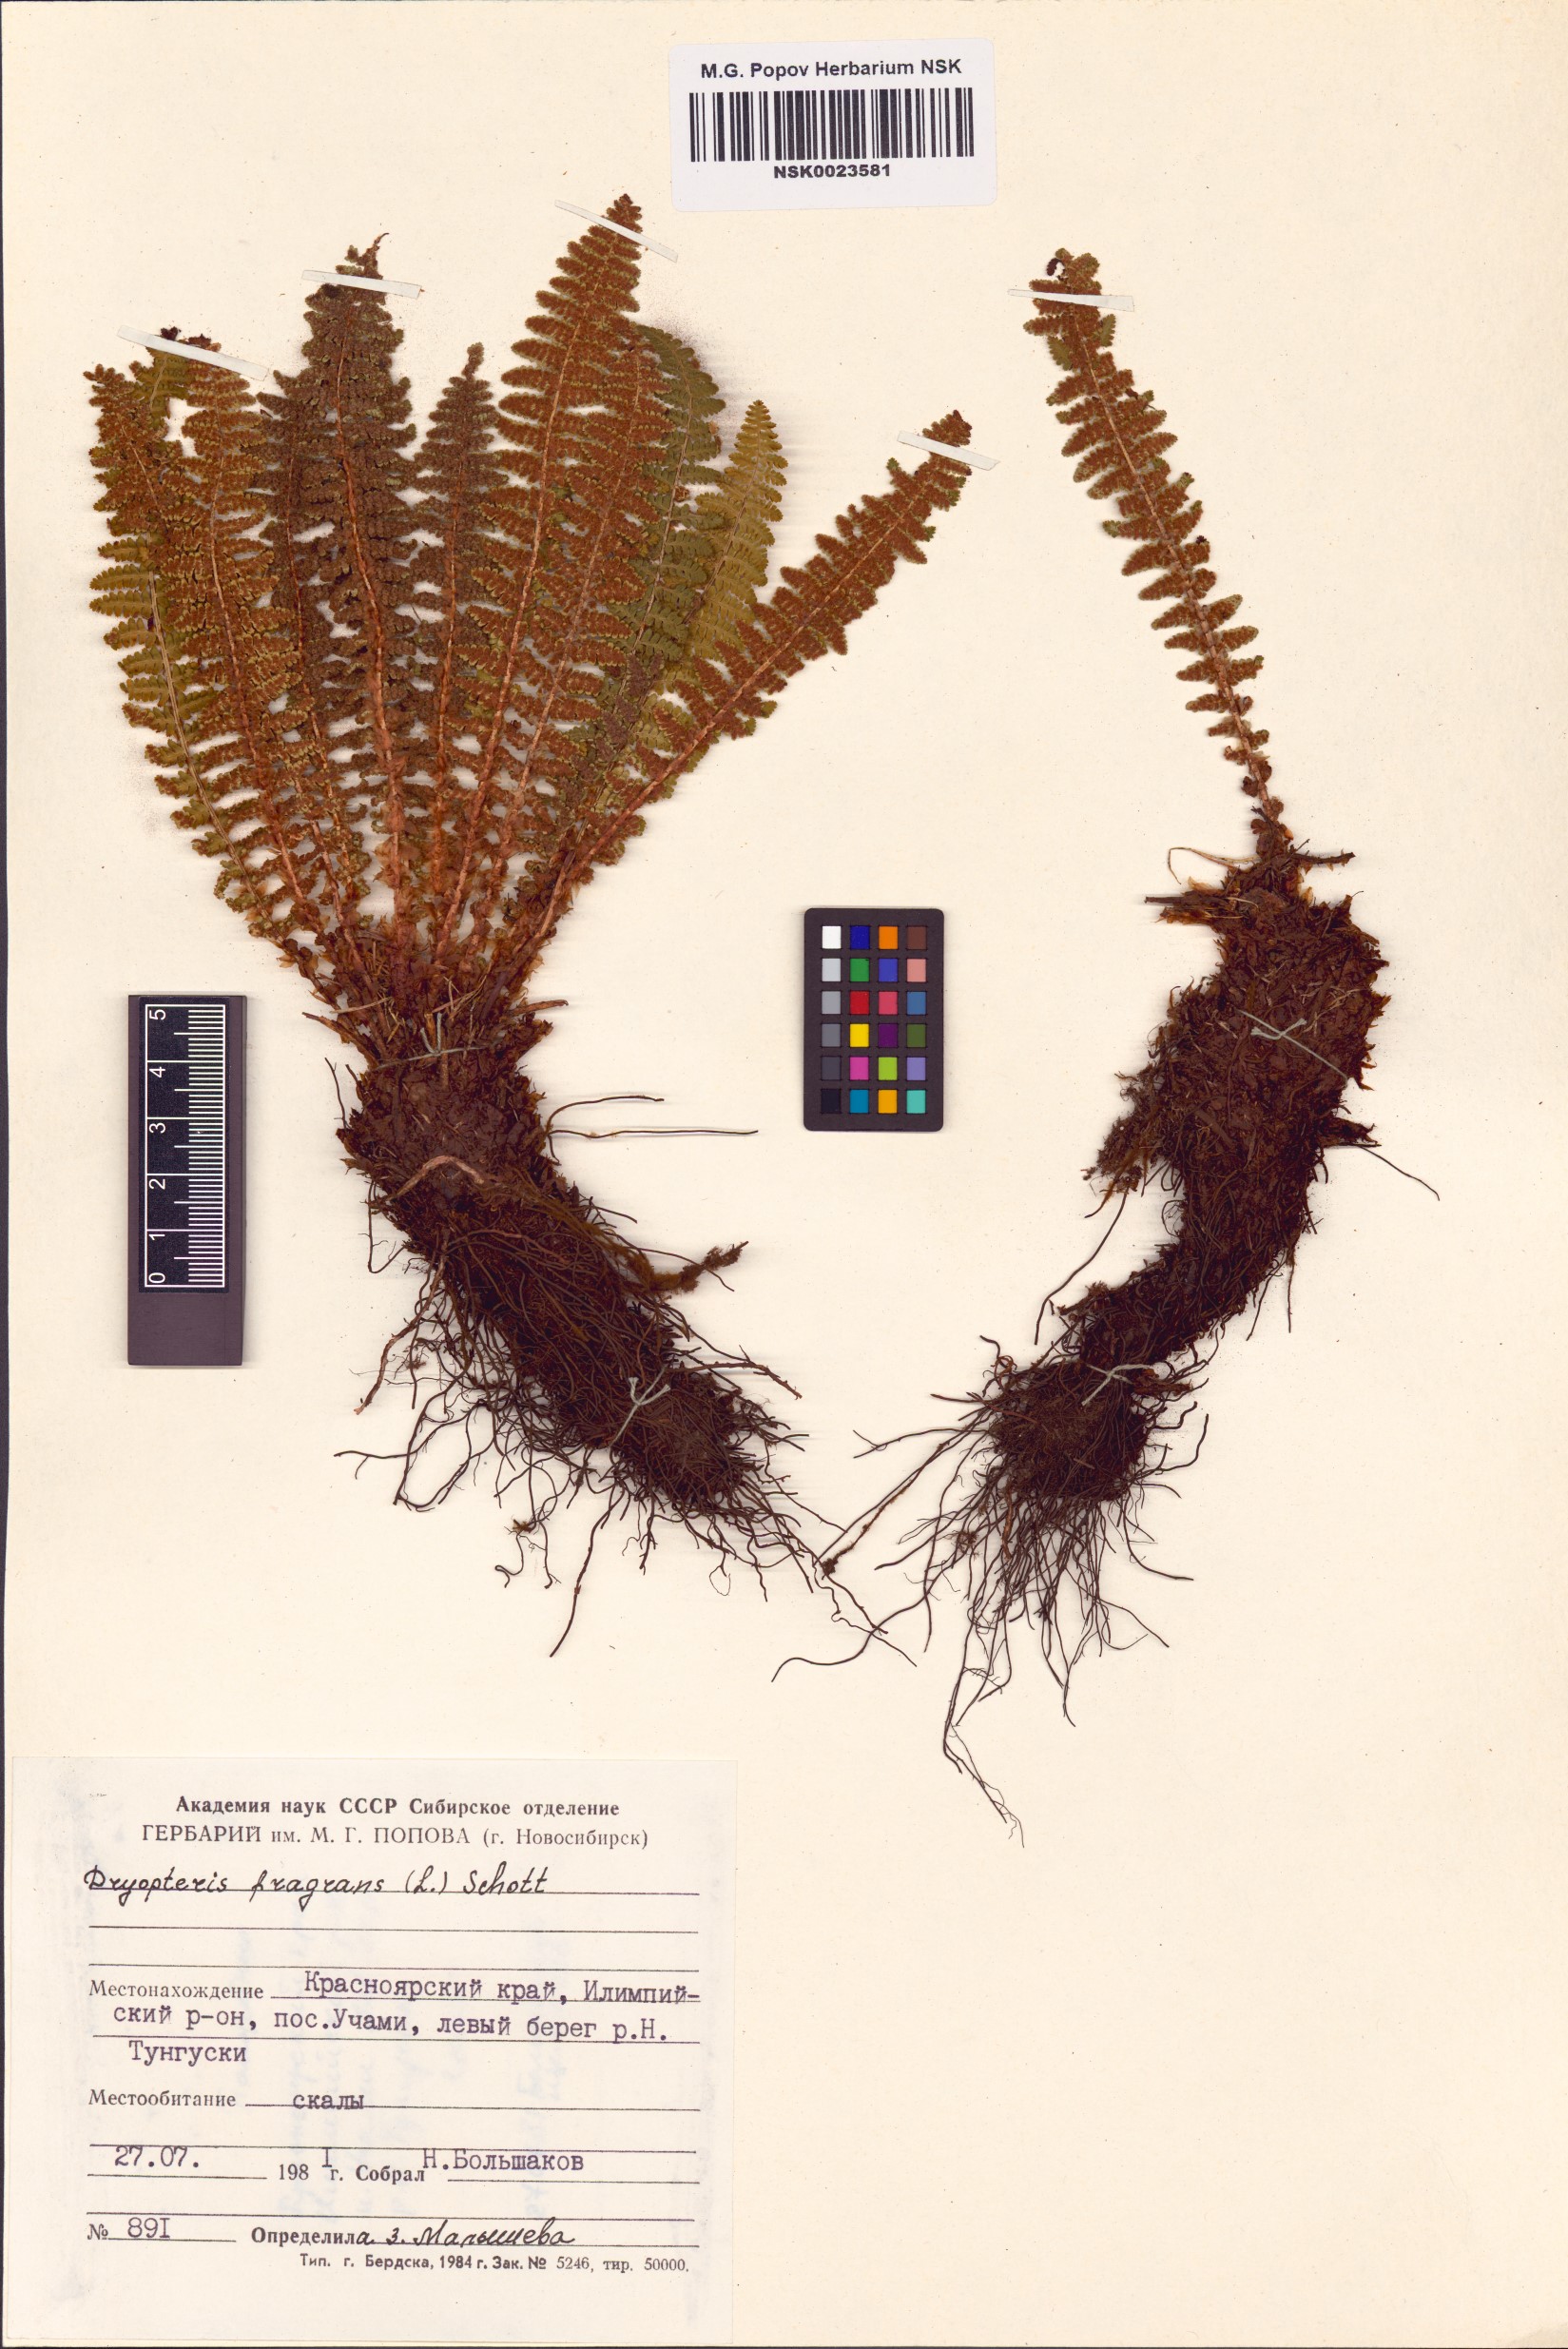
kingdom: Plantae
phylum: Tracheophyta
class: Polypodiopsida
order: Polypodiales
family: Dryopteridaceae
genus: Dryopteris
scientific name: Dryopteris fragrans
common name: Fragrant wood fern
